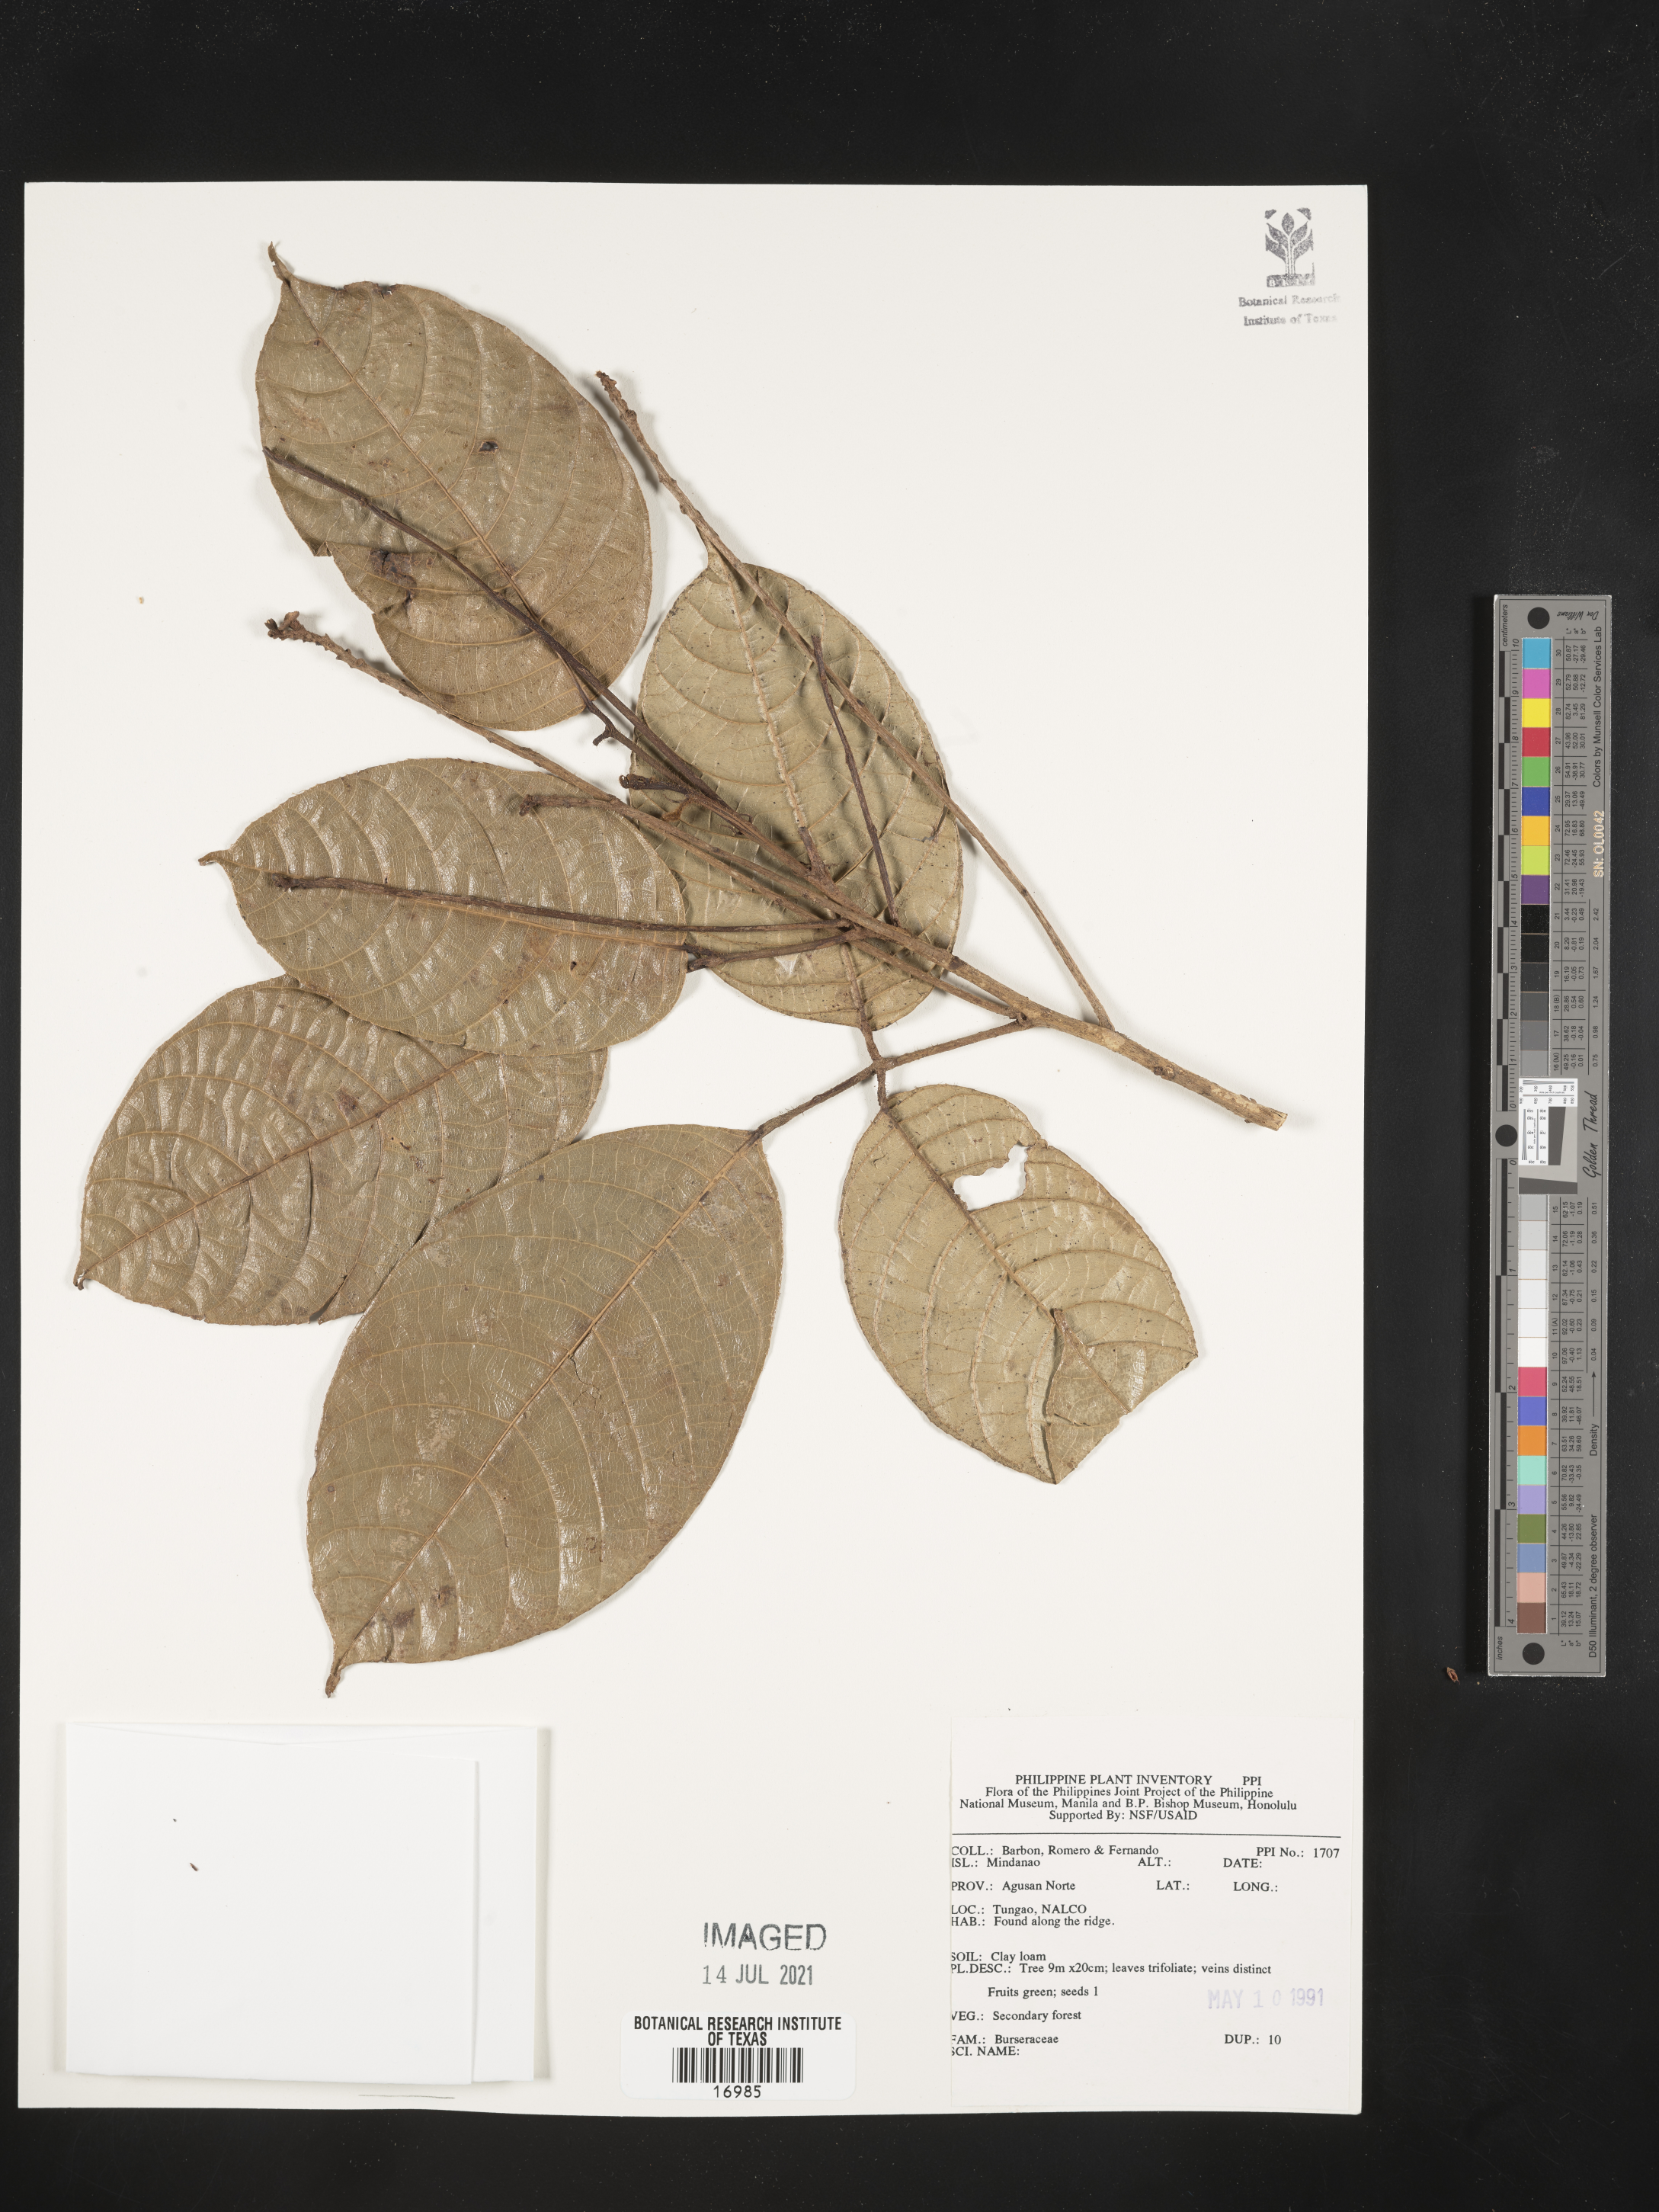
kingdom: Plantae
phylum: Tracheophyta
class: Magnoliopsida
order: Sapindales
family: Burseraceae
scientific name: Burseraceae
